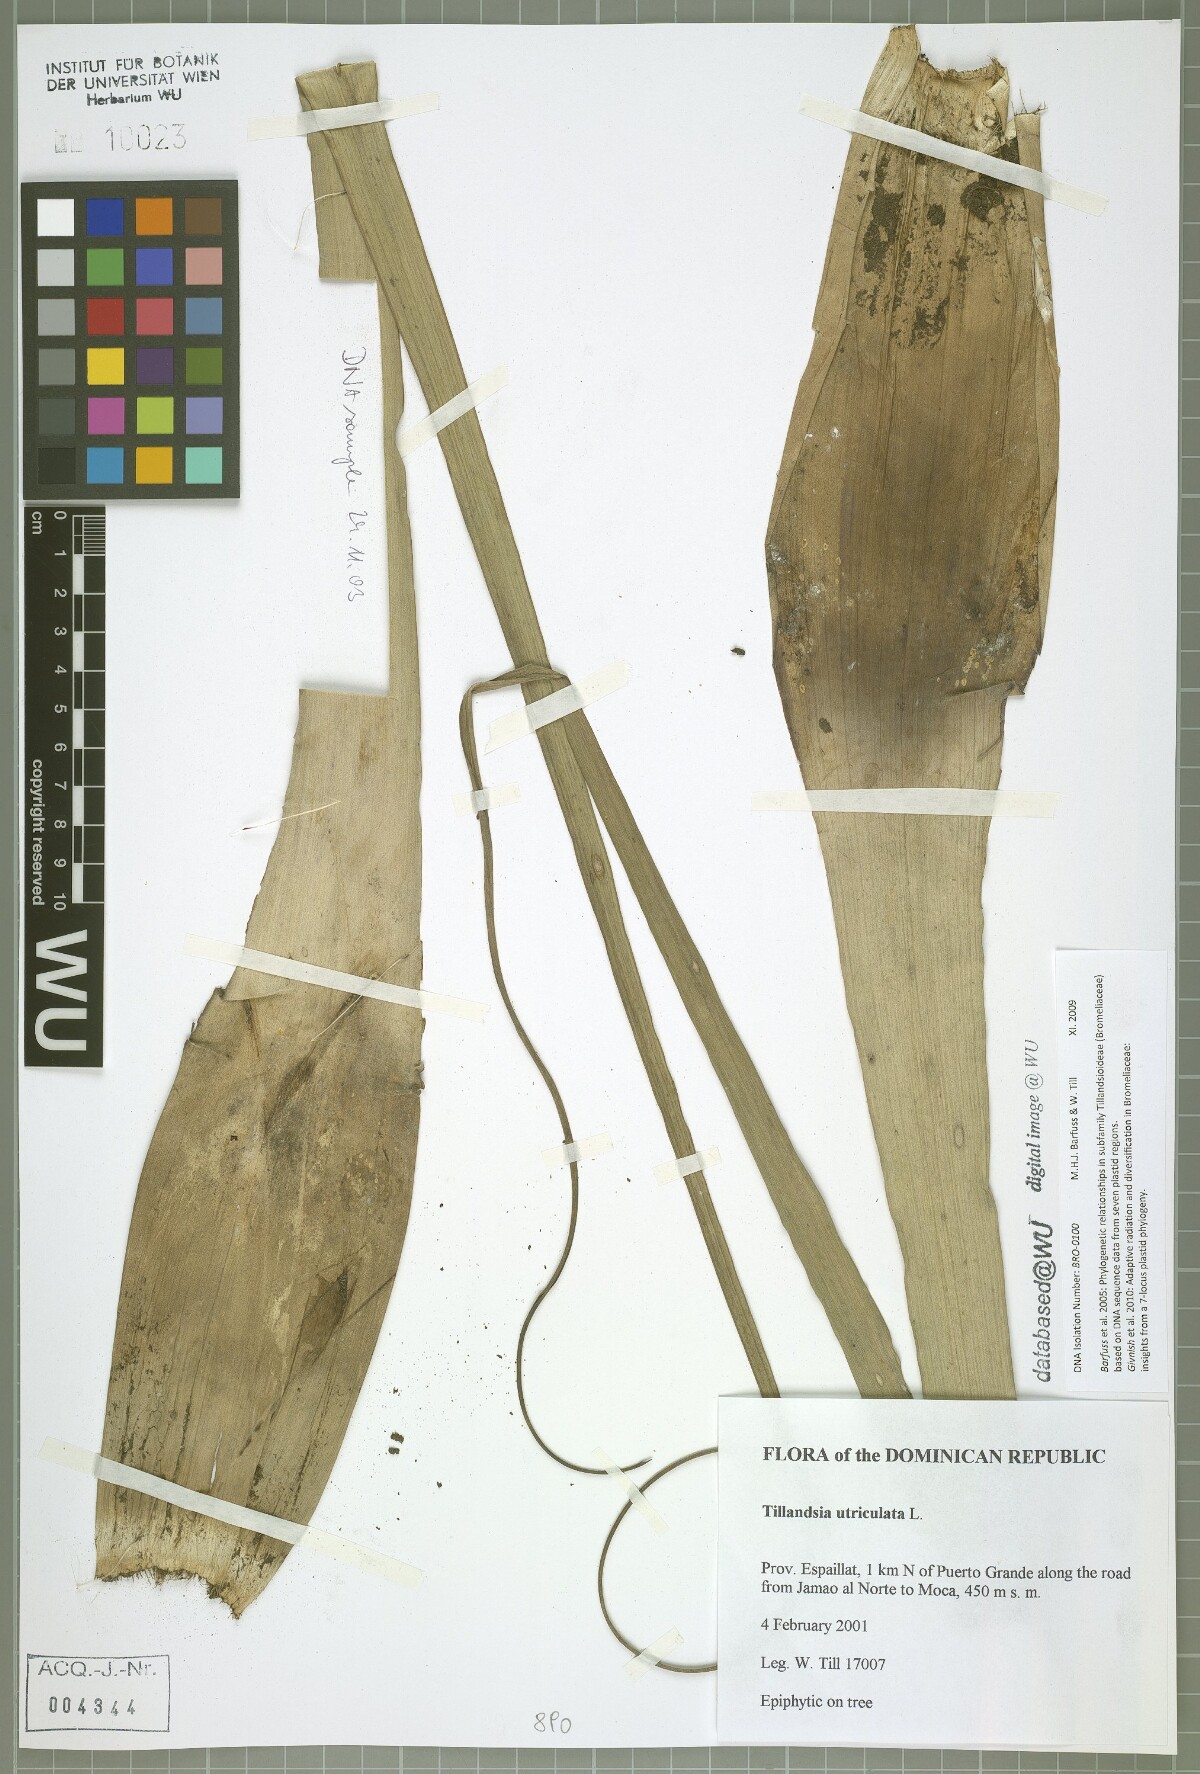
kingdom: Plantae
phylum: Tracheophyta
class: Liliopsida
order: Poales
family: Bromeliaceae
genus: Tillandsia
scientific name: Tillandsia utriculata
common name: Wild pine
